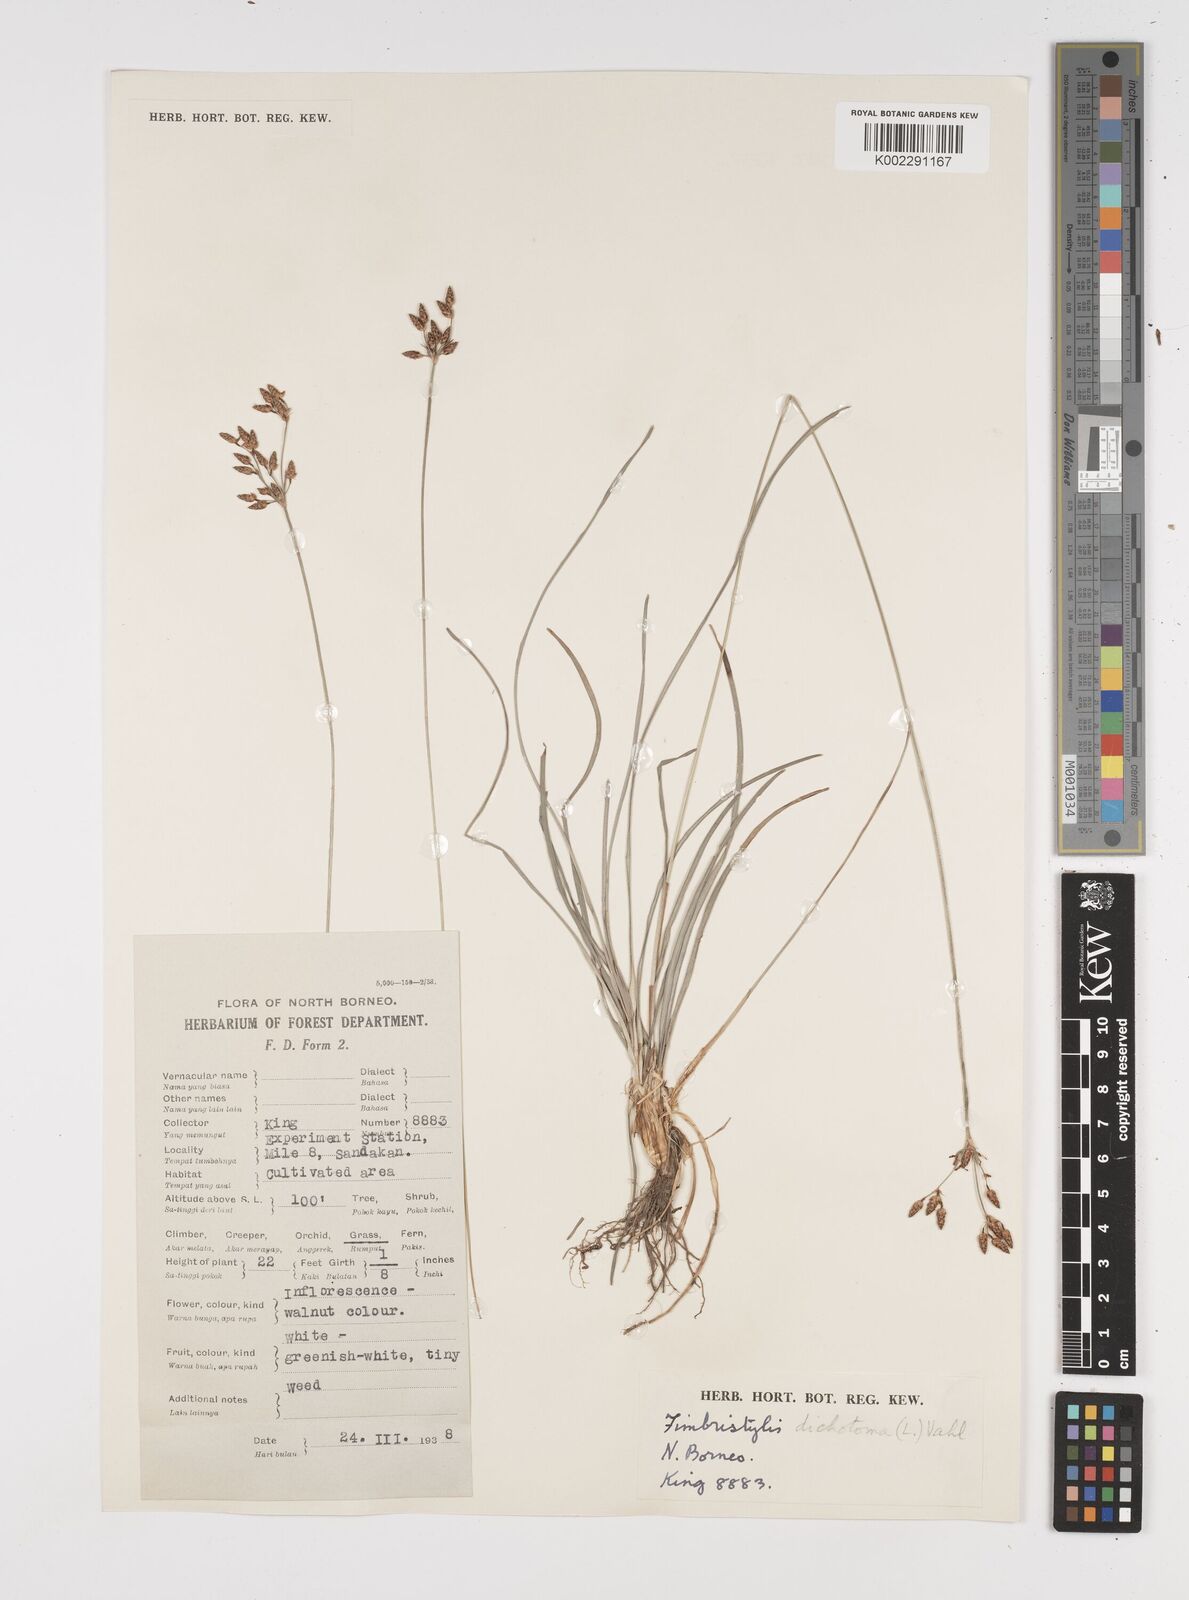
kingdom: Plantae
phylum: Tracheophyta
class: Liliopsida
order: Poales
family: Cyperaceae
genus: Fimbristylis
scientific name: Fimbristylis dichotoma
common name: Forked fimbry
